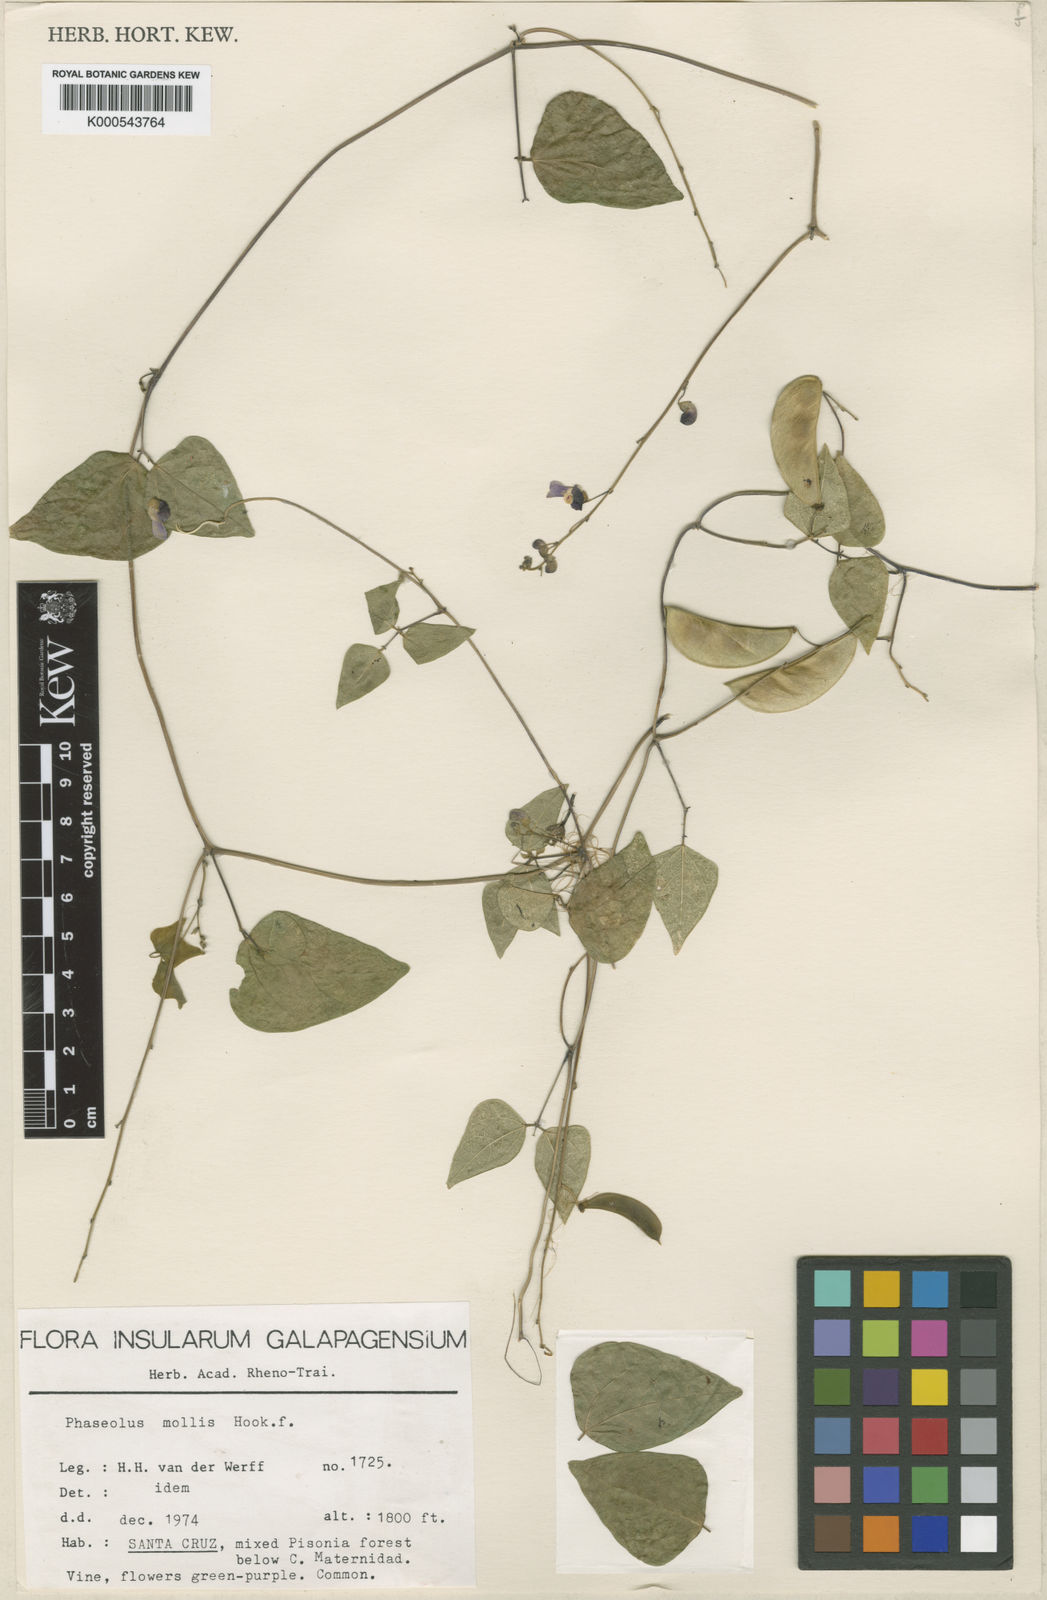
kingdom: Plantae
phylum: Tracheophyta
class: Magnoliopsida
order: Fabales
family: Fabaceae
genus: Phaseolus
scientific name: Phaseolus mollis
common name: Galapagos bean
